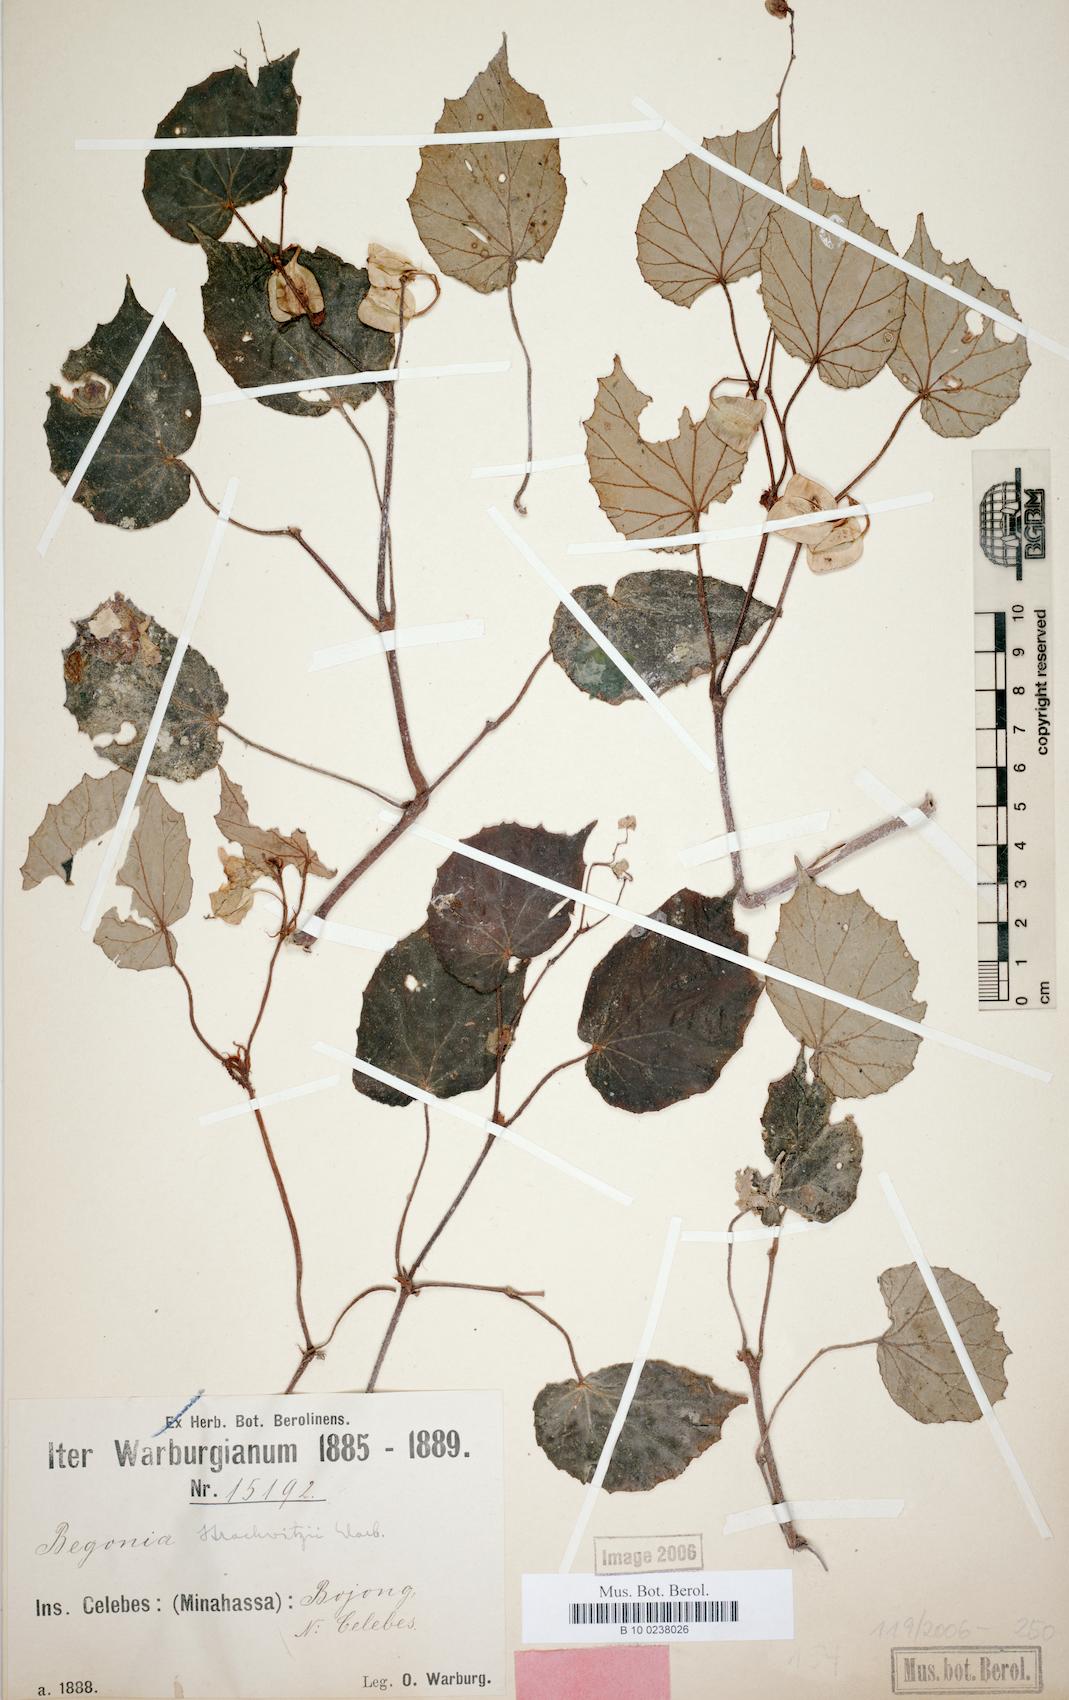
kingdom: Plantae
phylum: Tracheophyta
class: Magnoliopsida
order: Cucurbitales
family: Begoniaceae
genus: Begonia
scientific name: Begonia strachwitzii
